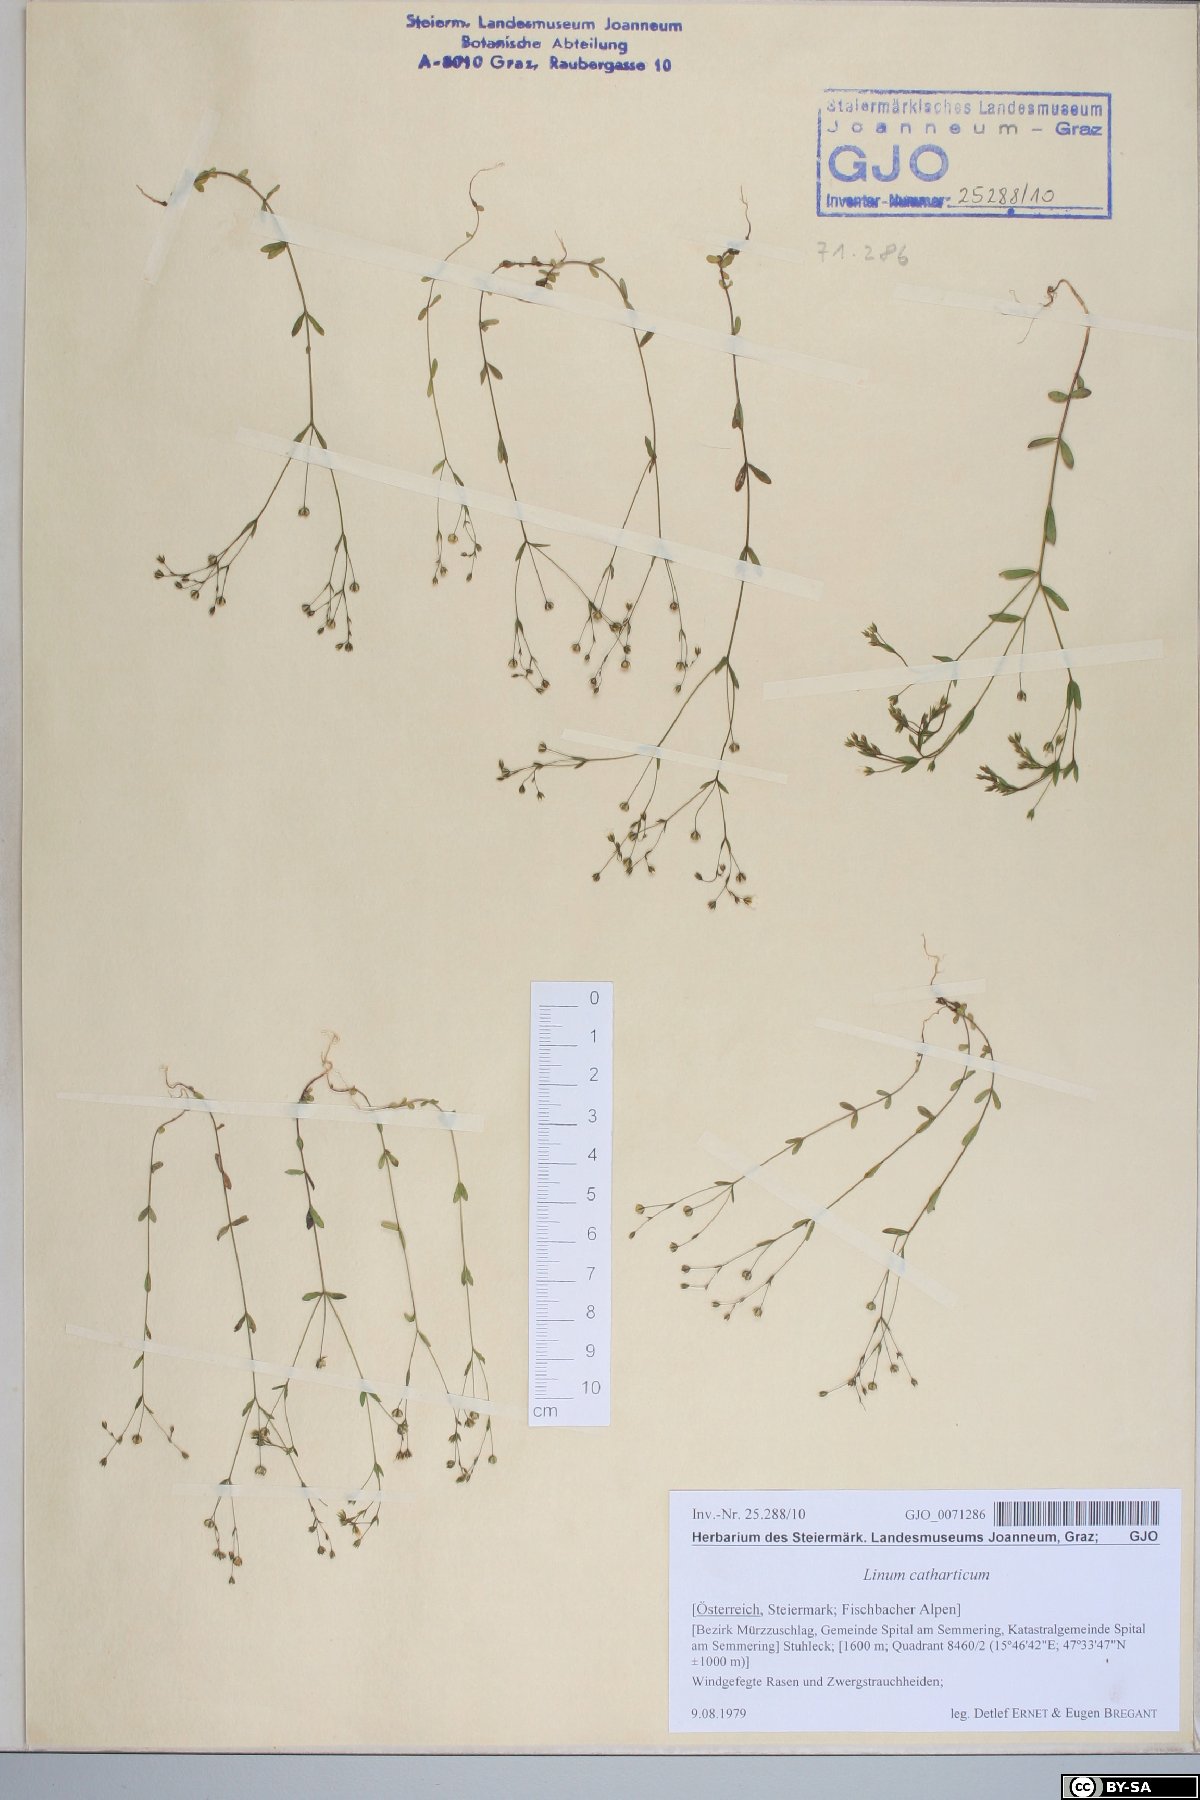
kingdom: Plantae
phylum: Tracheophyta
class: Magnoliopsida
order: Malpighiales
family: Linaceae
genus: Linum
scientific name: Linum catharticum
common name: Fairy flax
